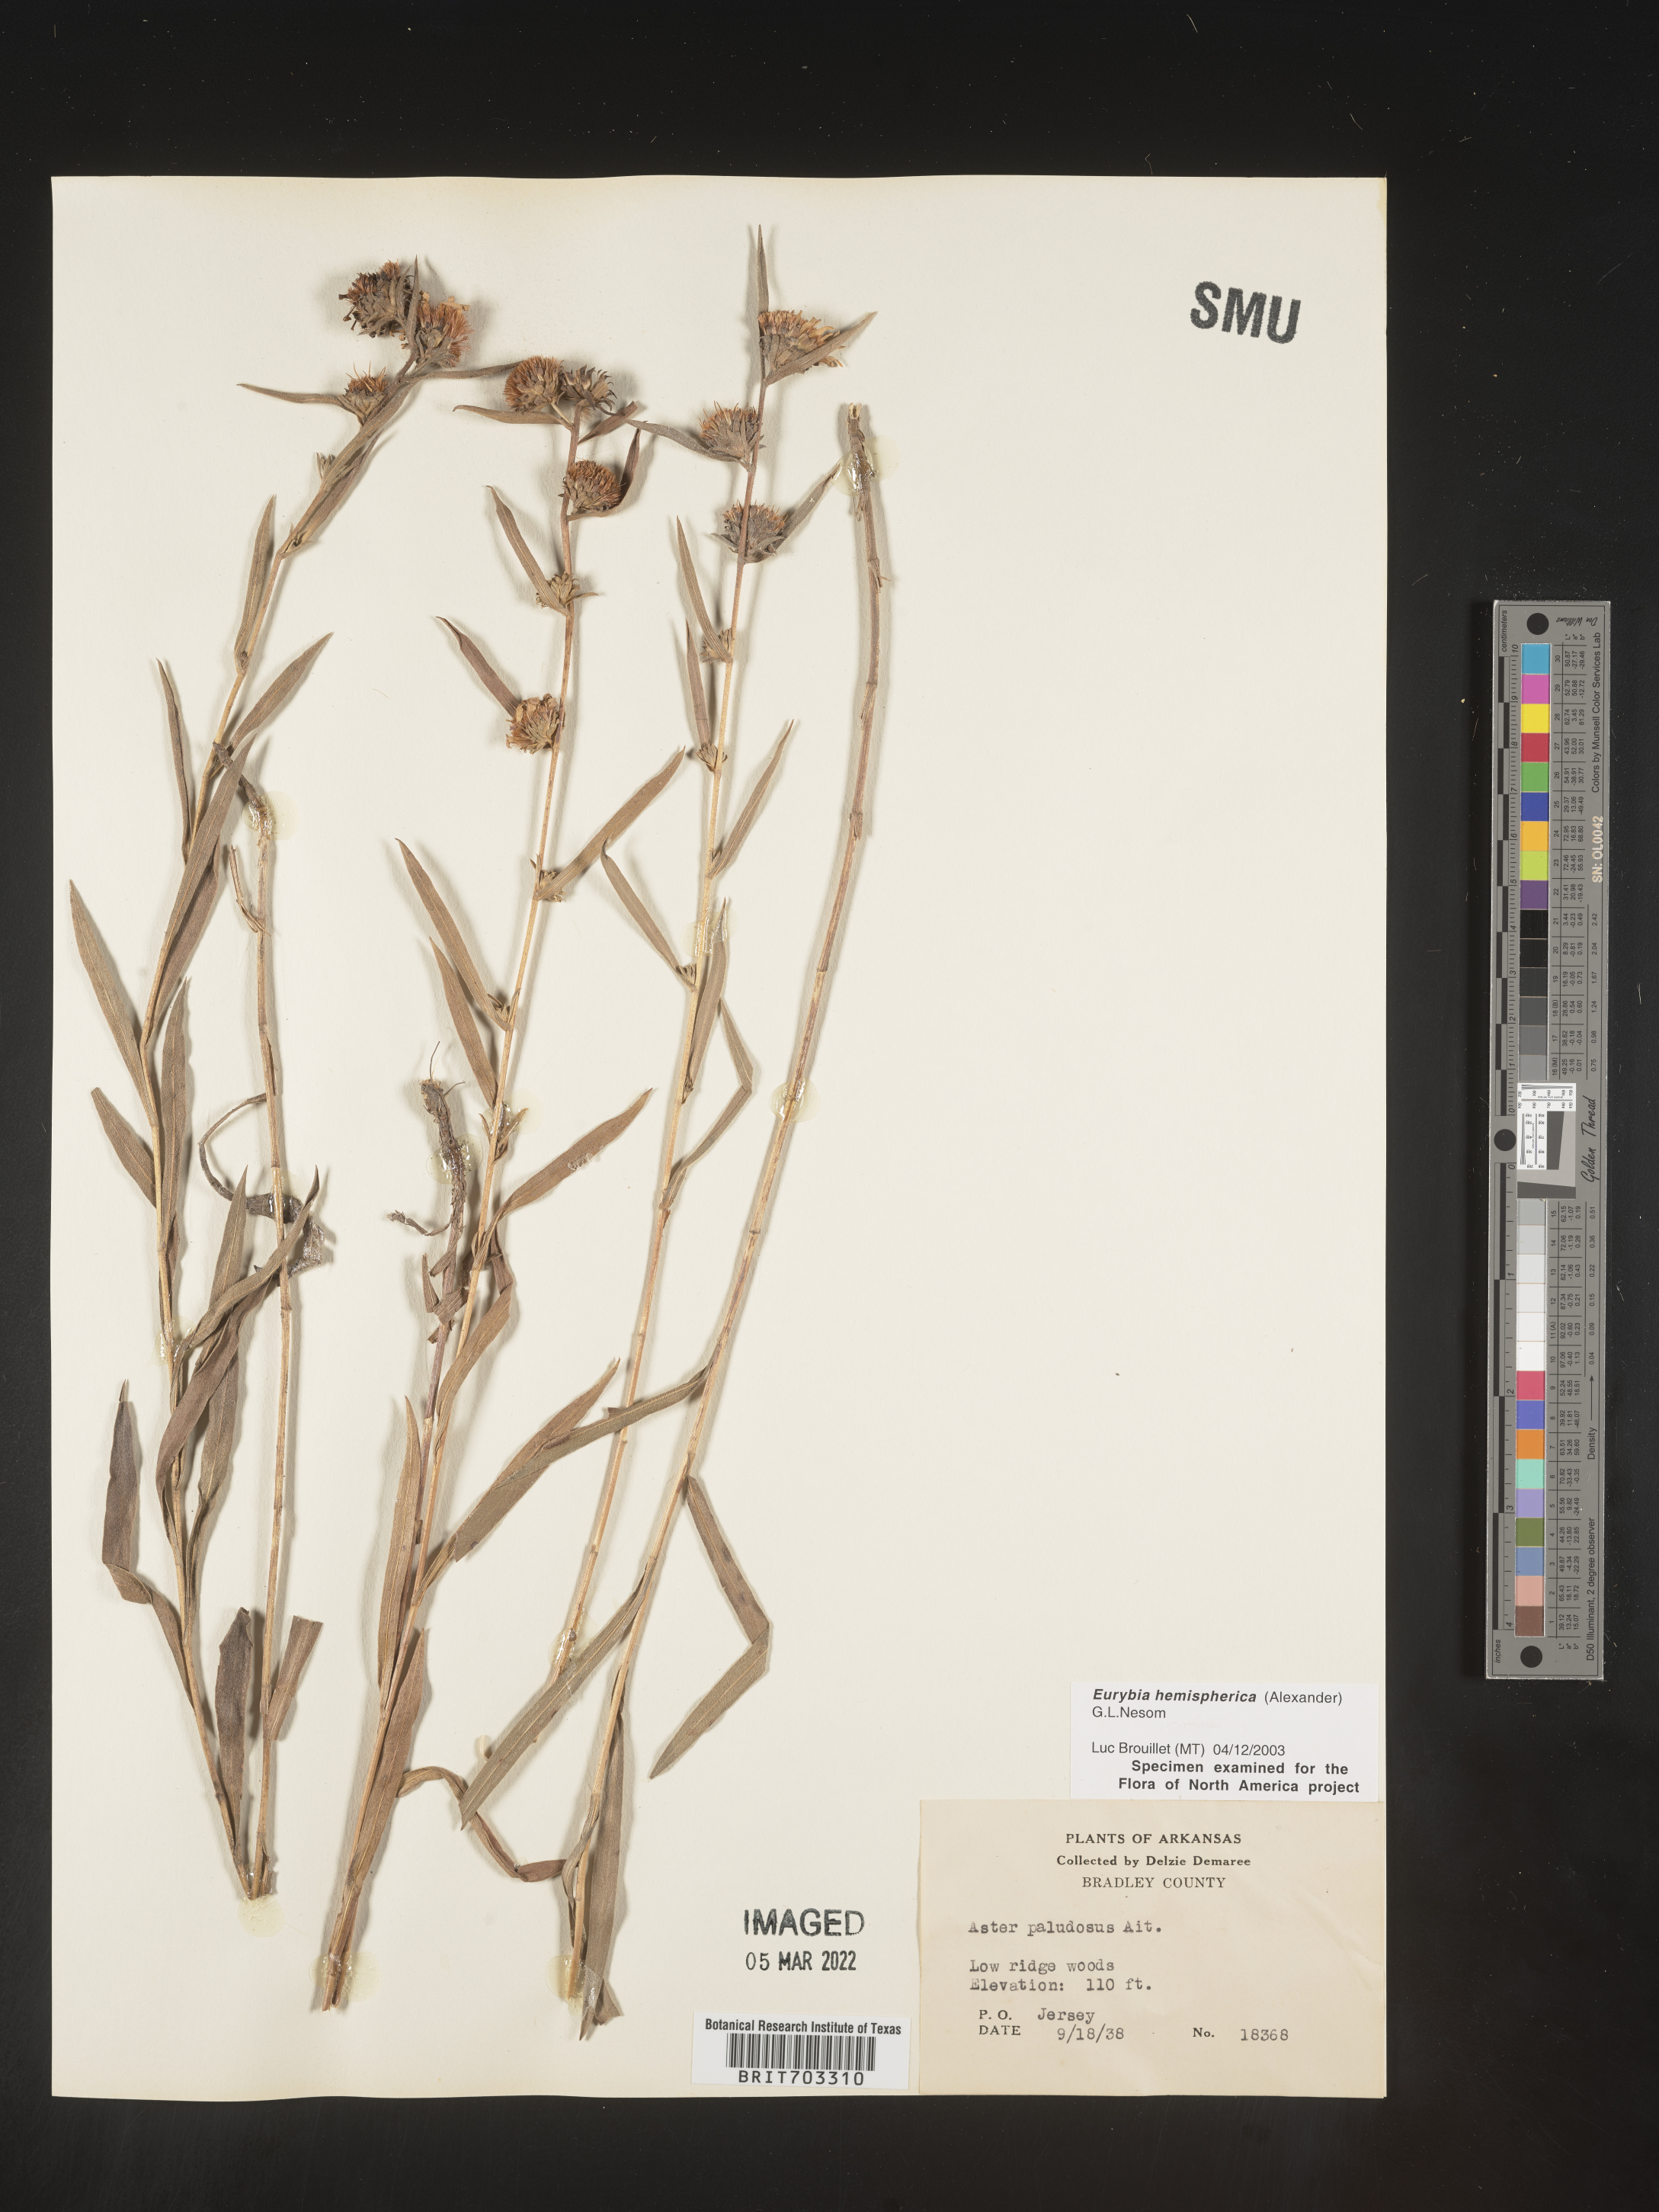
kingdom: Plantae
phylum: Tracheophyta
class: Magnoliopsida
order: Asterales
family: Asteraceae
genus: Eurybia
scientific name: Eurybia hemispherica
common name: Showy aster
